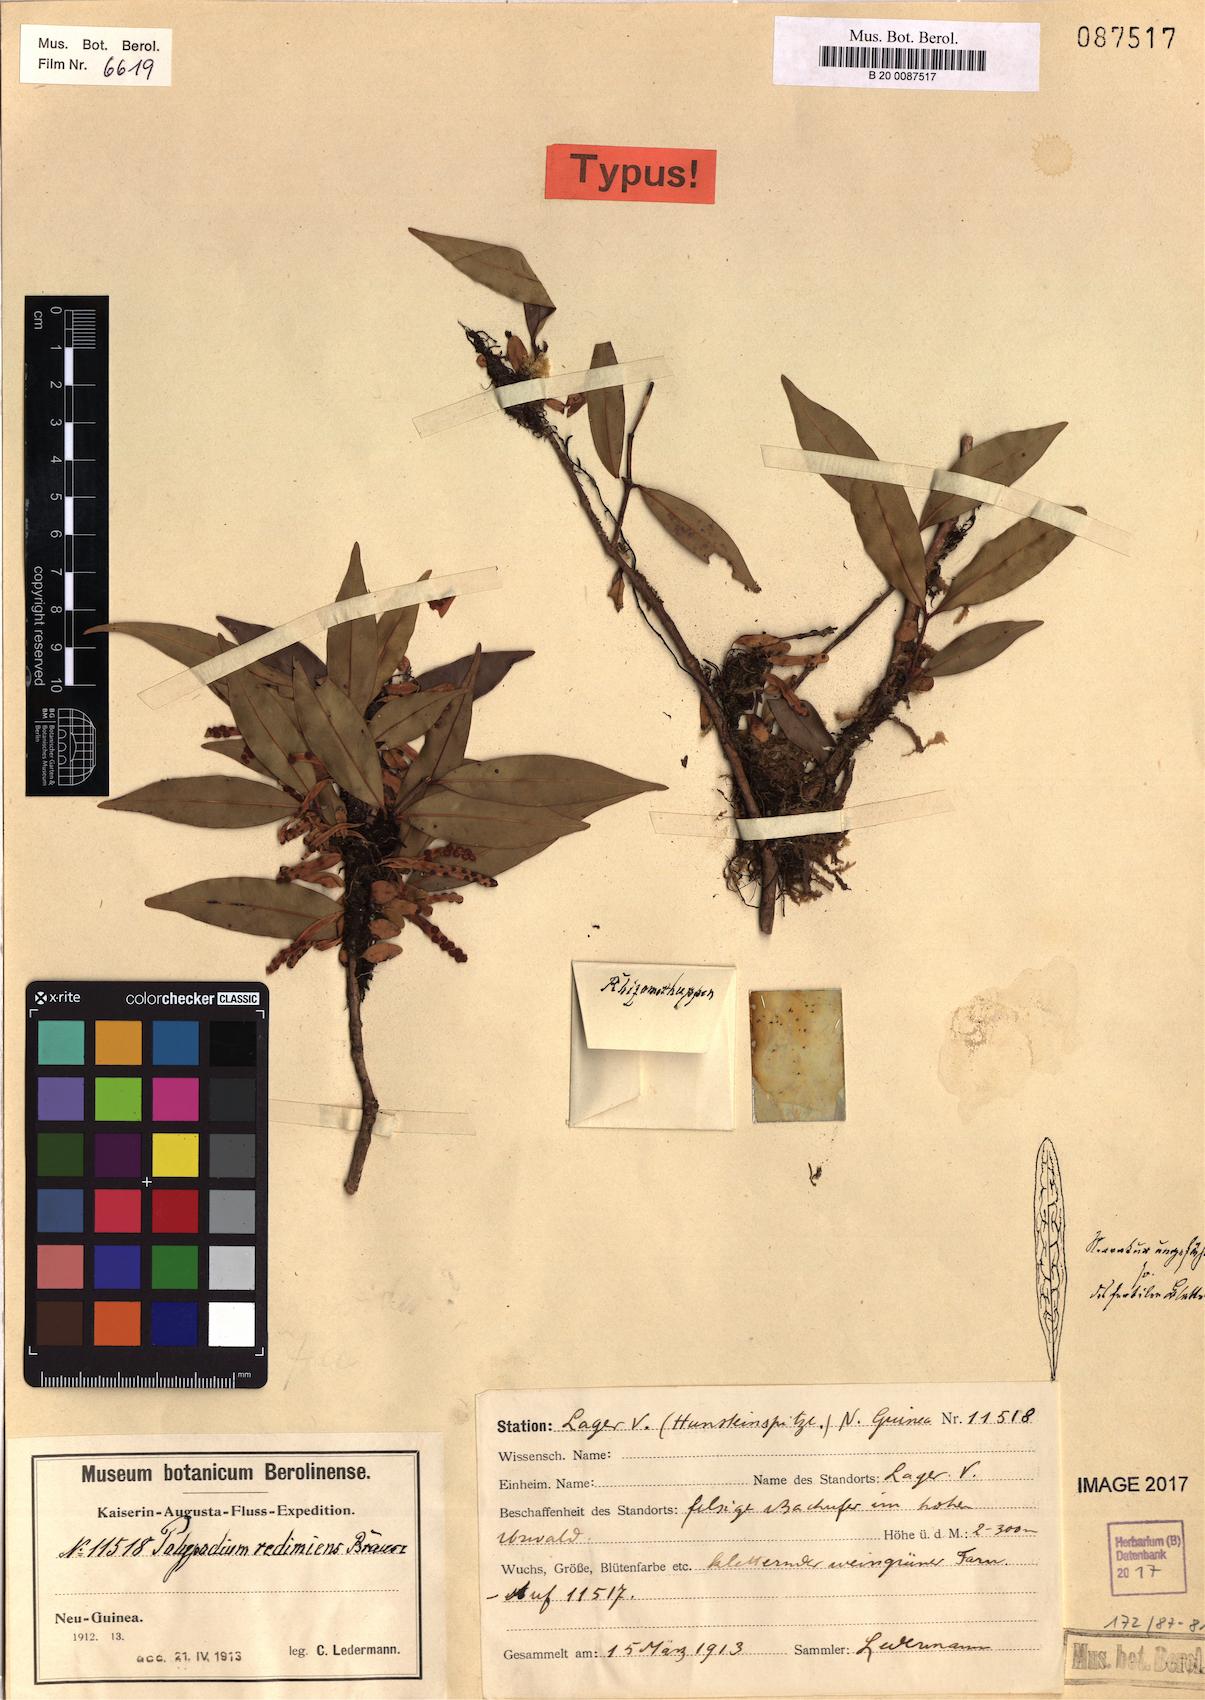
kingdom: Plantae
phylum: Tracheophyta
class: Polypodiopsida
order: Polypodiales
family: Polypodiaceae
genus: Lepisorus
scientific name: Lepisorus accedens
